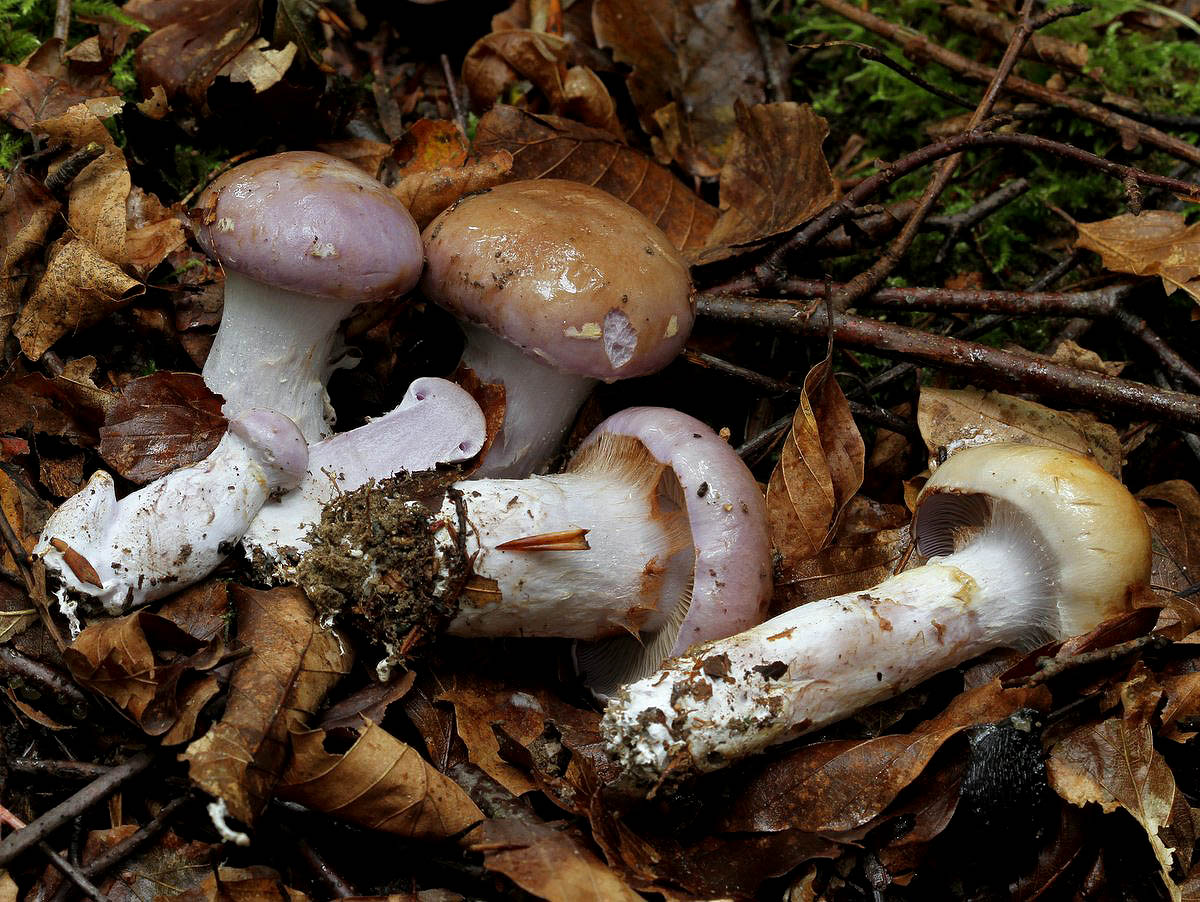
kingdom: Fungi
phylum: Basidiomycota
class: Agaricomycetes
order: Agaricales
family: Cortinariaceae
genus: Cortinarius
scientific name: Cortinarius largus
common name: violetrandet slørhat
